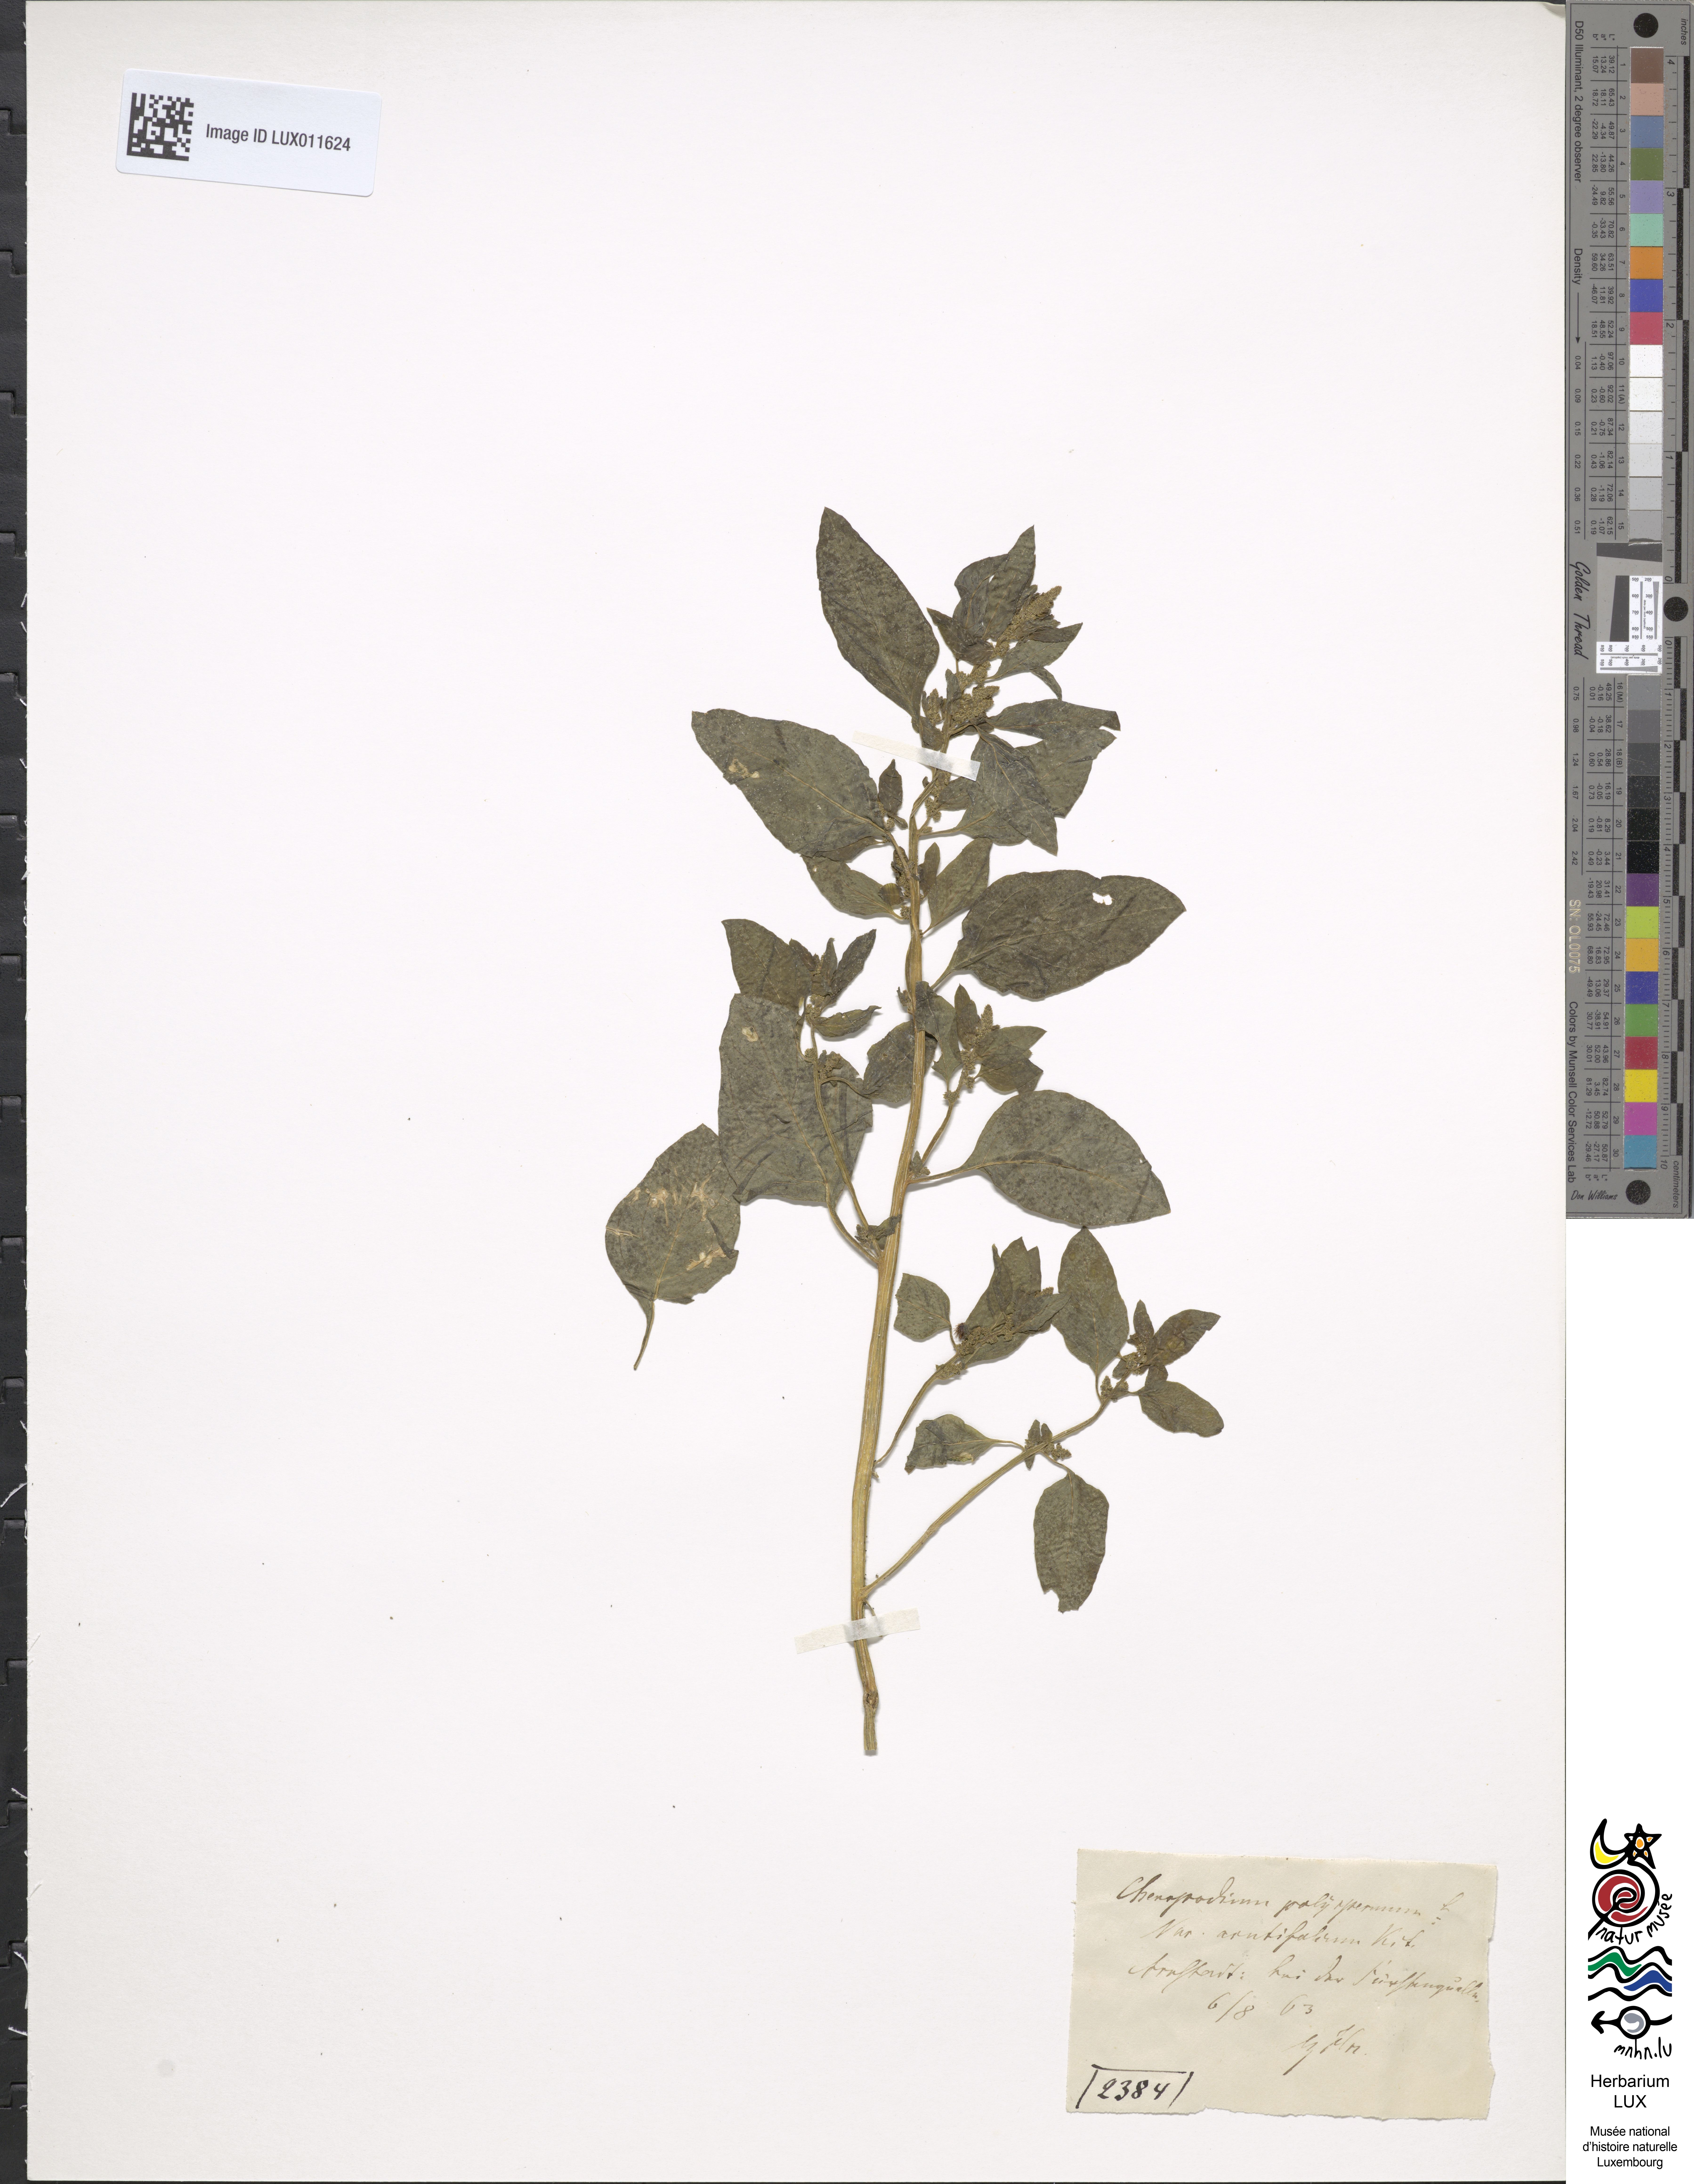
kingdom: Plantae
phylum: Tracheophyta
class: Magnoliopsida
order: Caryophyllales
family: Amaranthaceae
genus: Lipandra
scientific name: Lipandra polysperma
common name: Many-seed goosefoot
